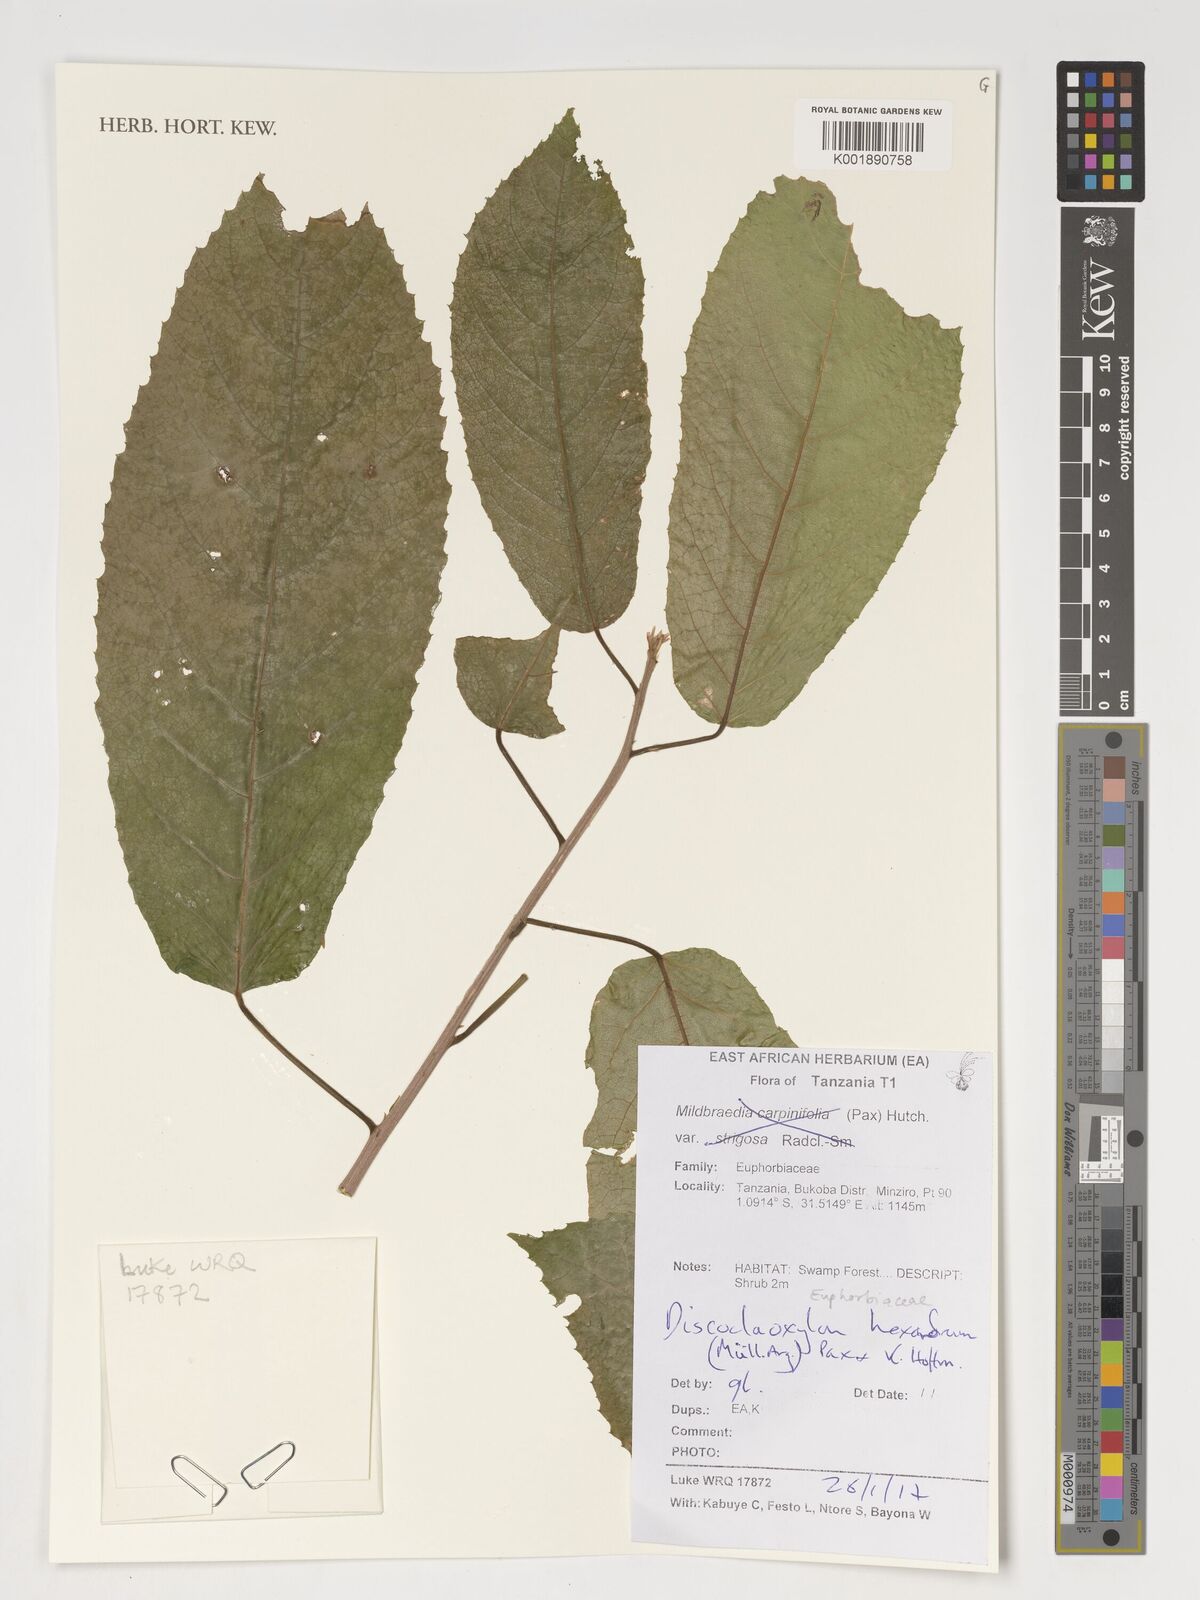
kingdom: Plantae
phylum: Tracheophyta
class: Magnoliopsida
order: Malpighiales
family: Euphorbiaceae
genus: Discoclaoxylon
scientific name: Discoclaoxylon hexandrum
